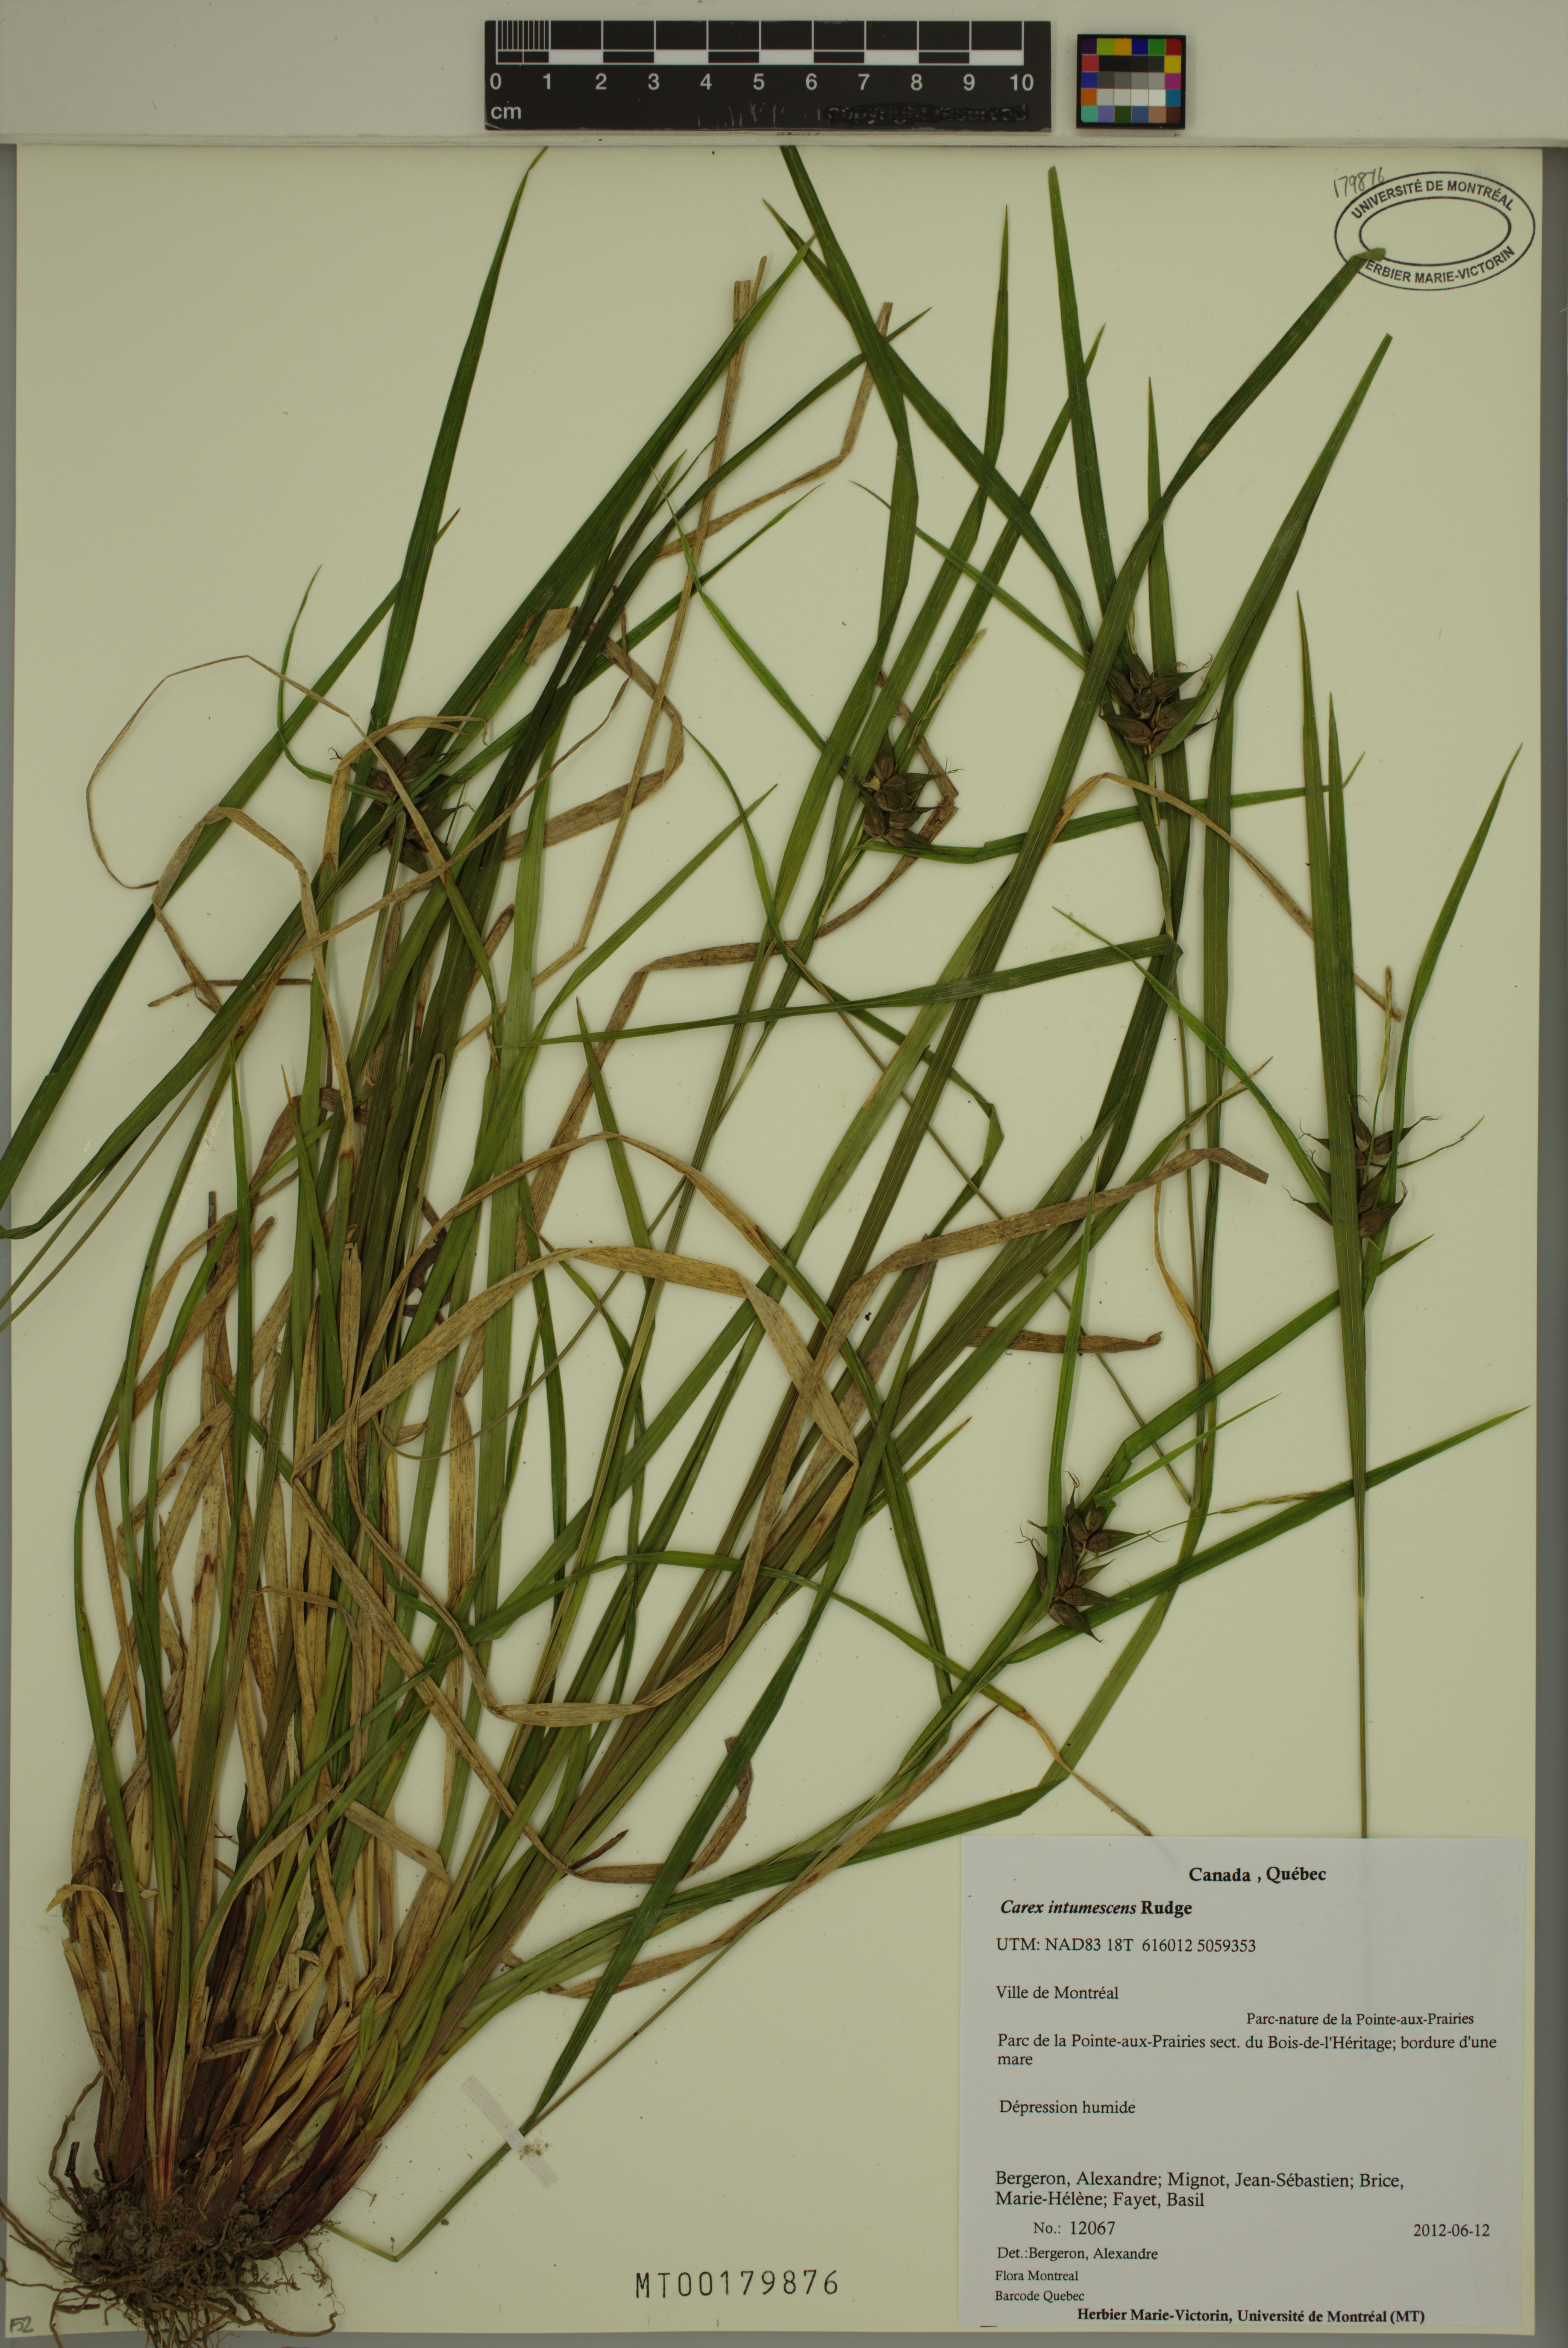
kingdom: Plantae
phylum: Tracheophyta
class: Liliopsida
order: Poales
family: Cyperaceae
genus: Carex
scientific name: Carex intumescens
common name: Greater bladder sedge
